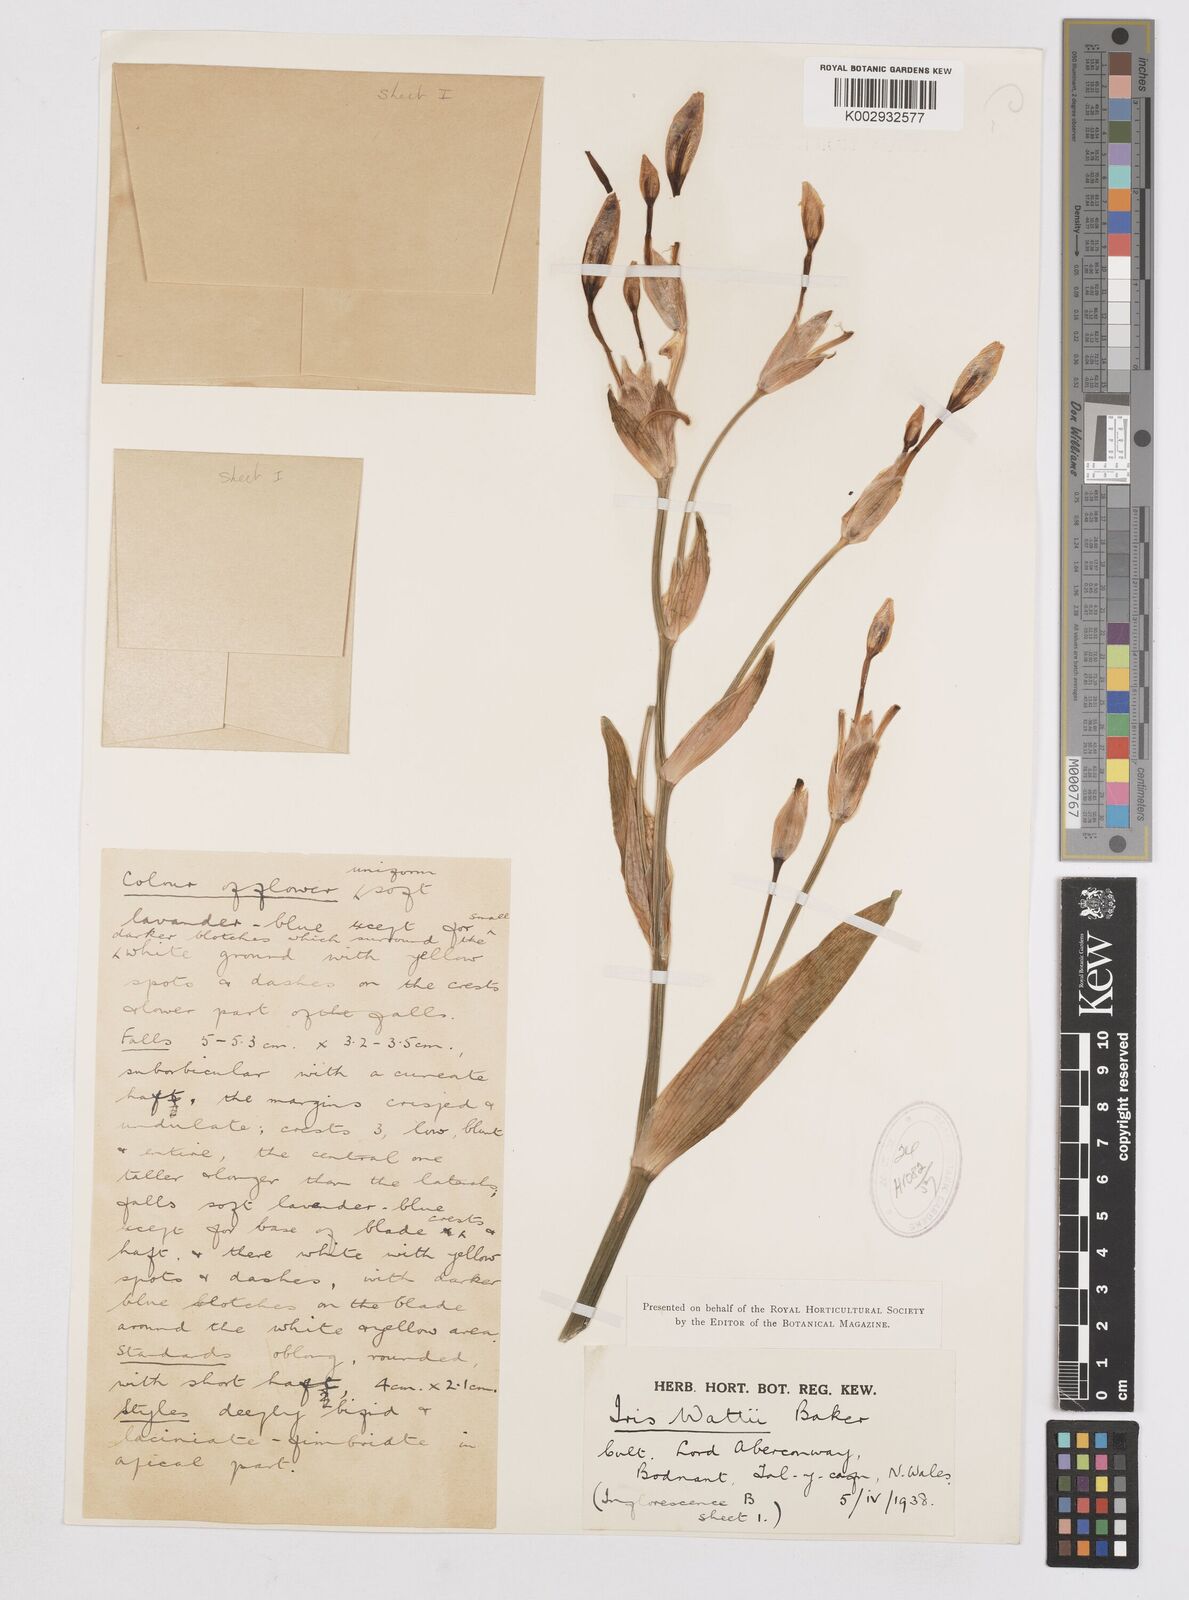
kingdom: Plantae
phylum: Tracheophyta
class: Liliopsida
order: Asparagales
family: Iridaceae
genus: Iris
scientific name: Iris wattii
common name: Fan-shape iris
